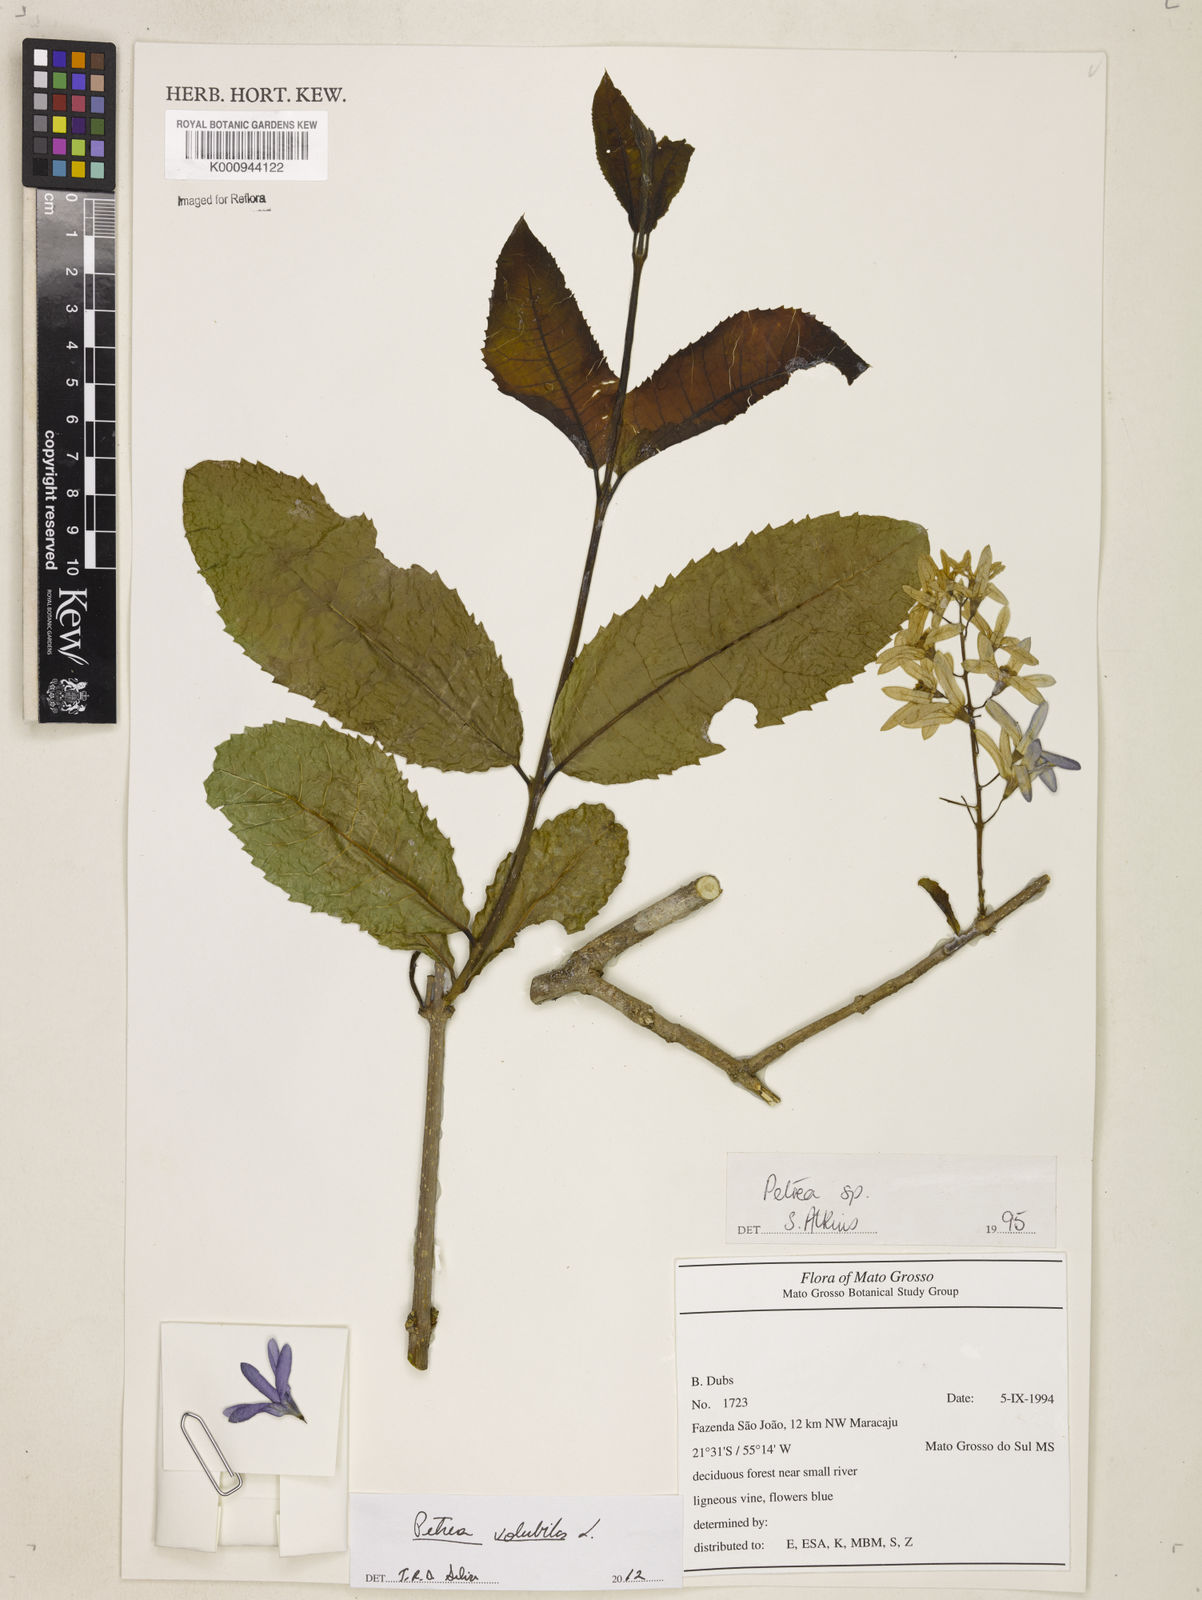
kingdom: Plantae
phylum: Tracheophyta
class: Magnoliopsida
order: Lamiales
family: Verbenaceae
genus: Petrea
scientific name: Petrea volubilis
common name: Queen's-wreath
